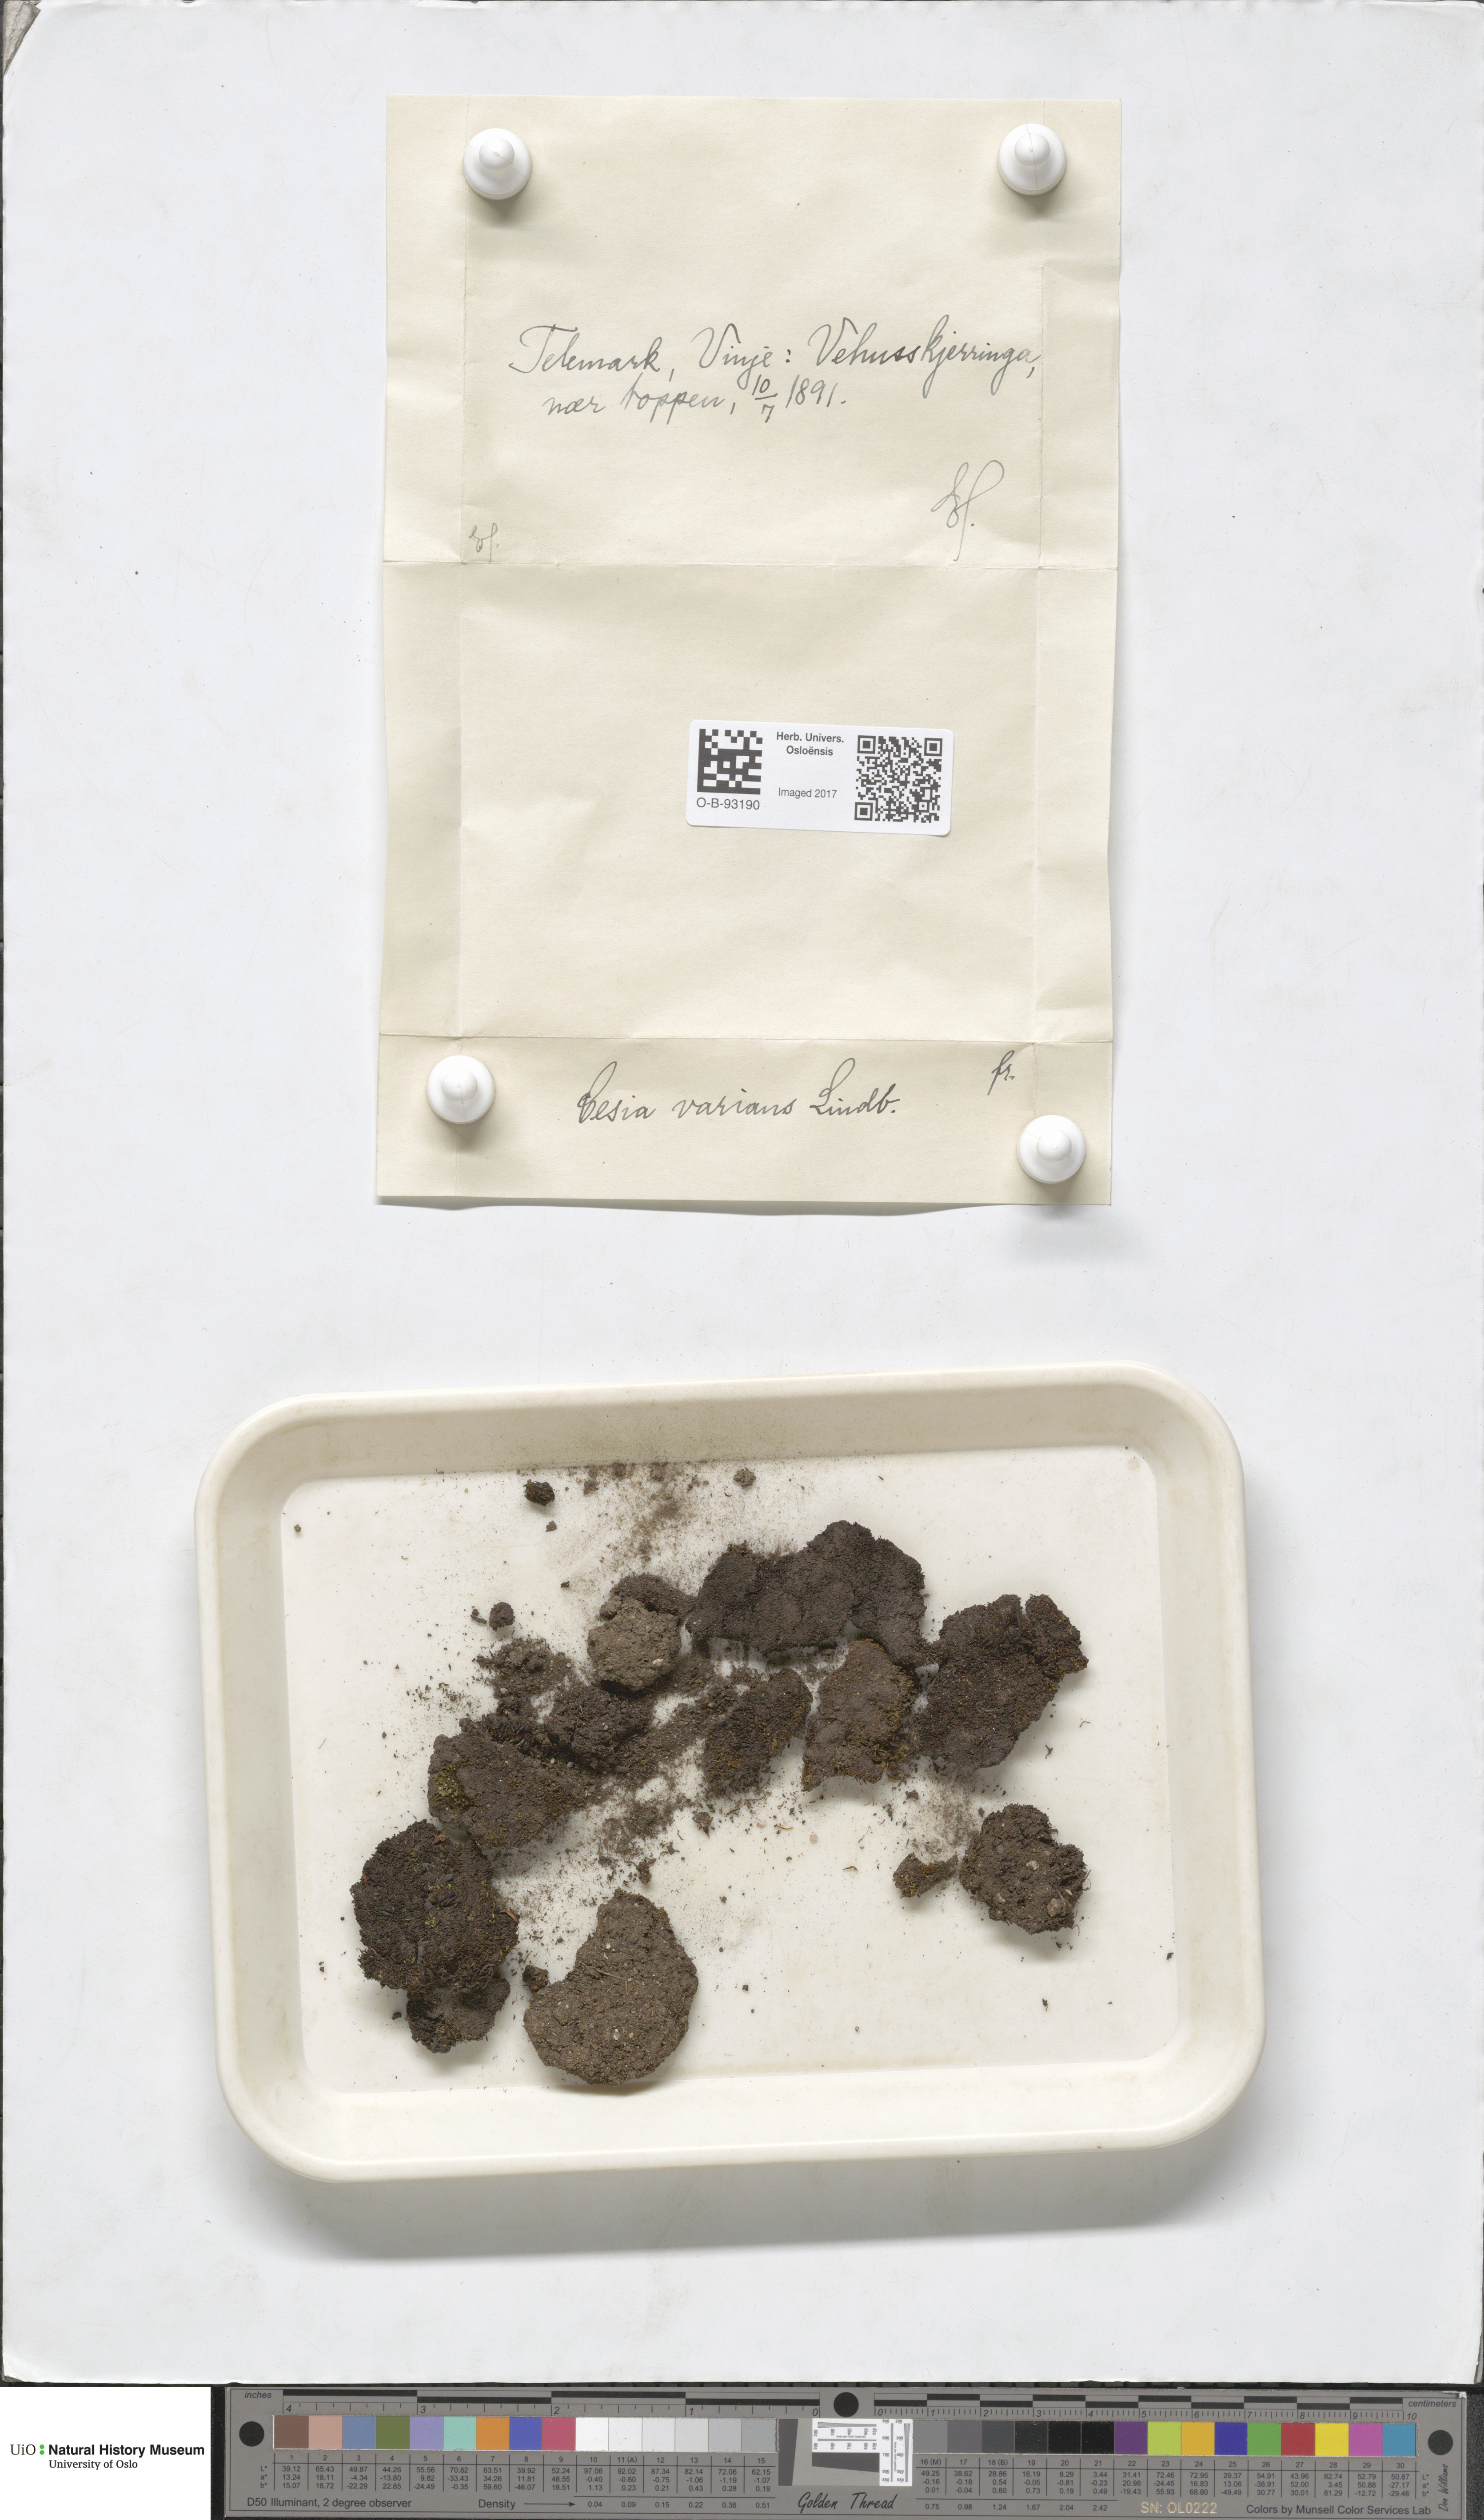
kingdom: Plantae
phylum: Marchantiophyta
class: Jungermanniopsida
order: Jungermanniales
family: Gymnomitriaceae
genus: Gymnomitrion
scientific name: Gymnomitrion brevissimum
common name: Snow rustwort
